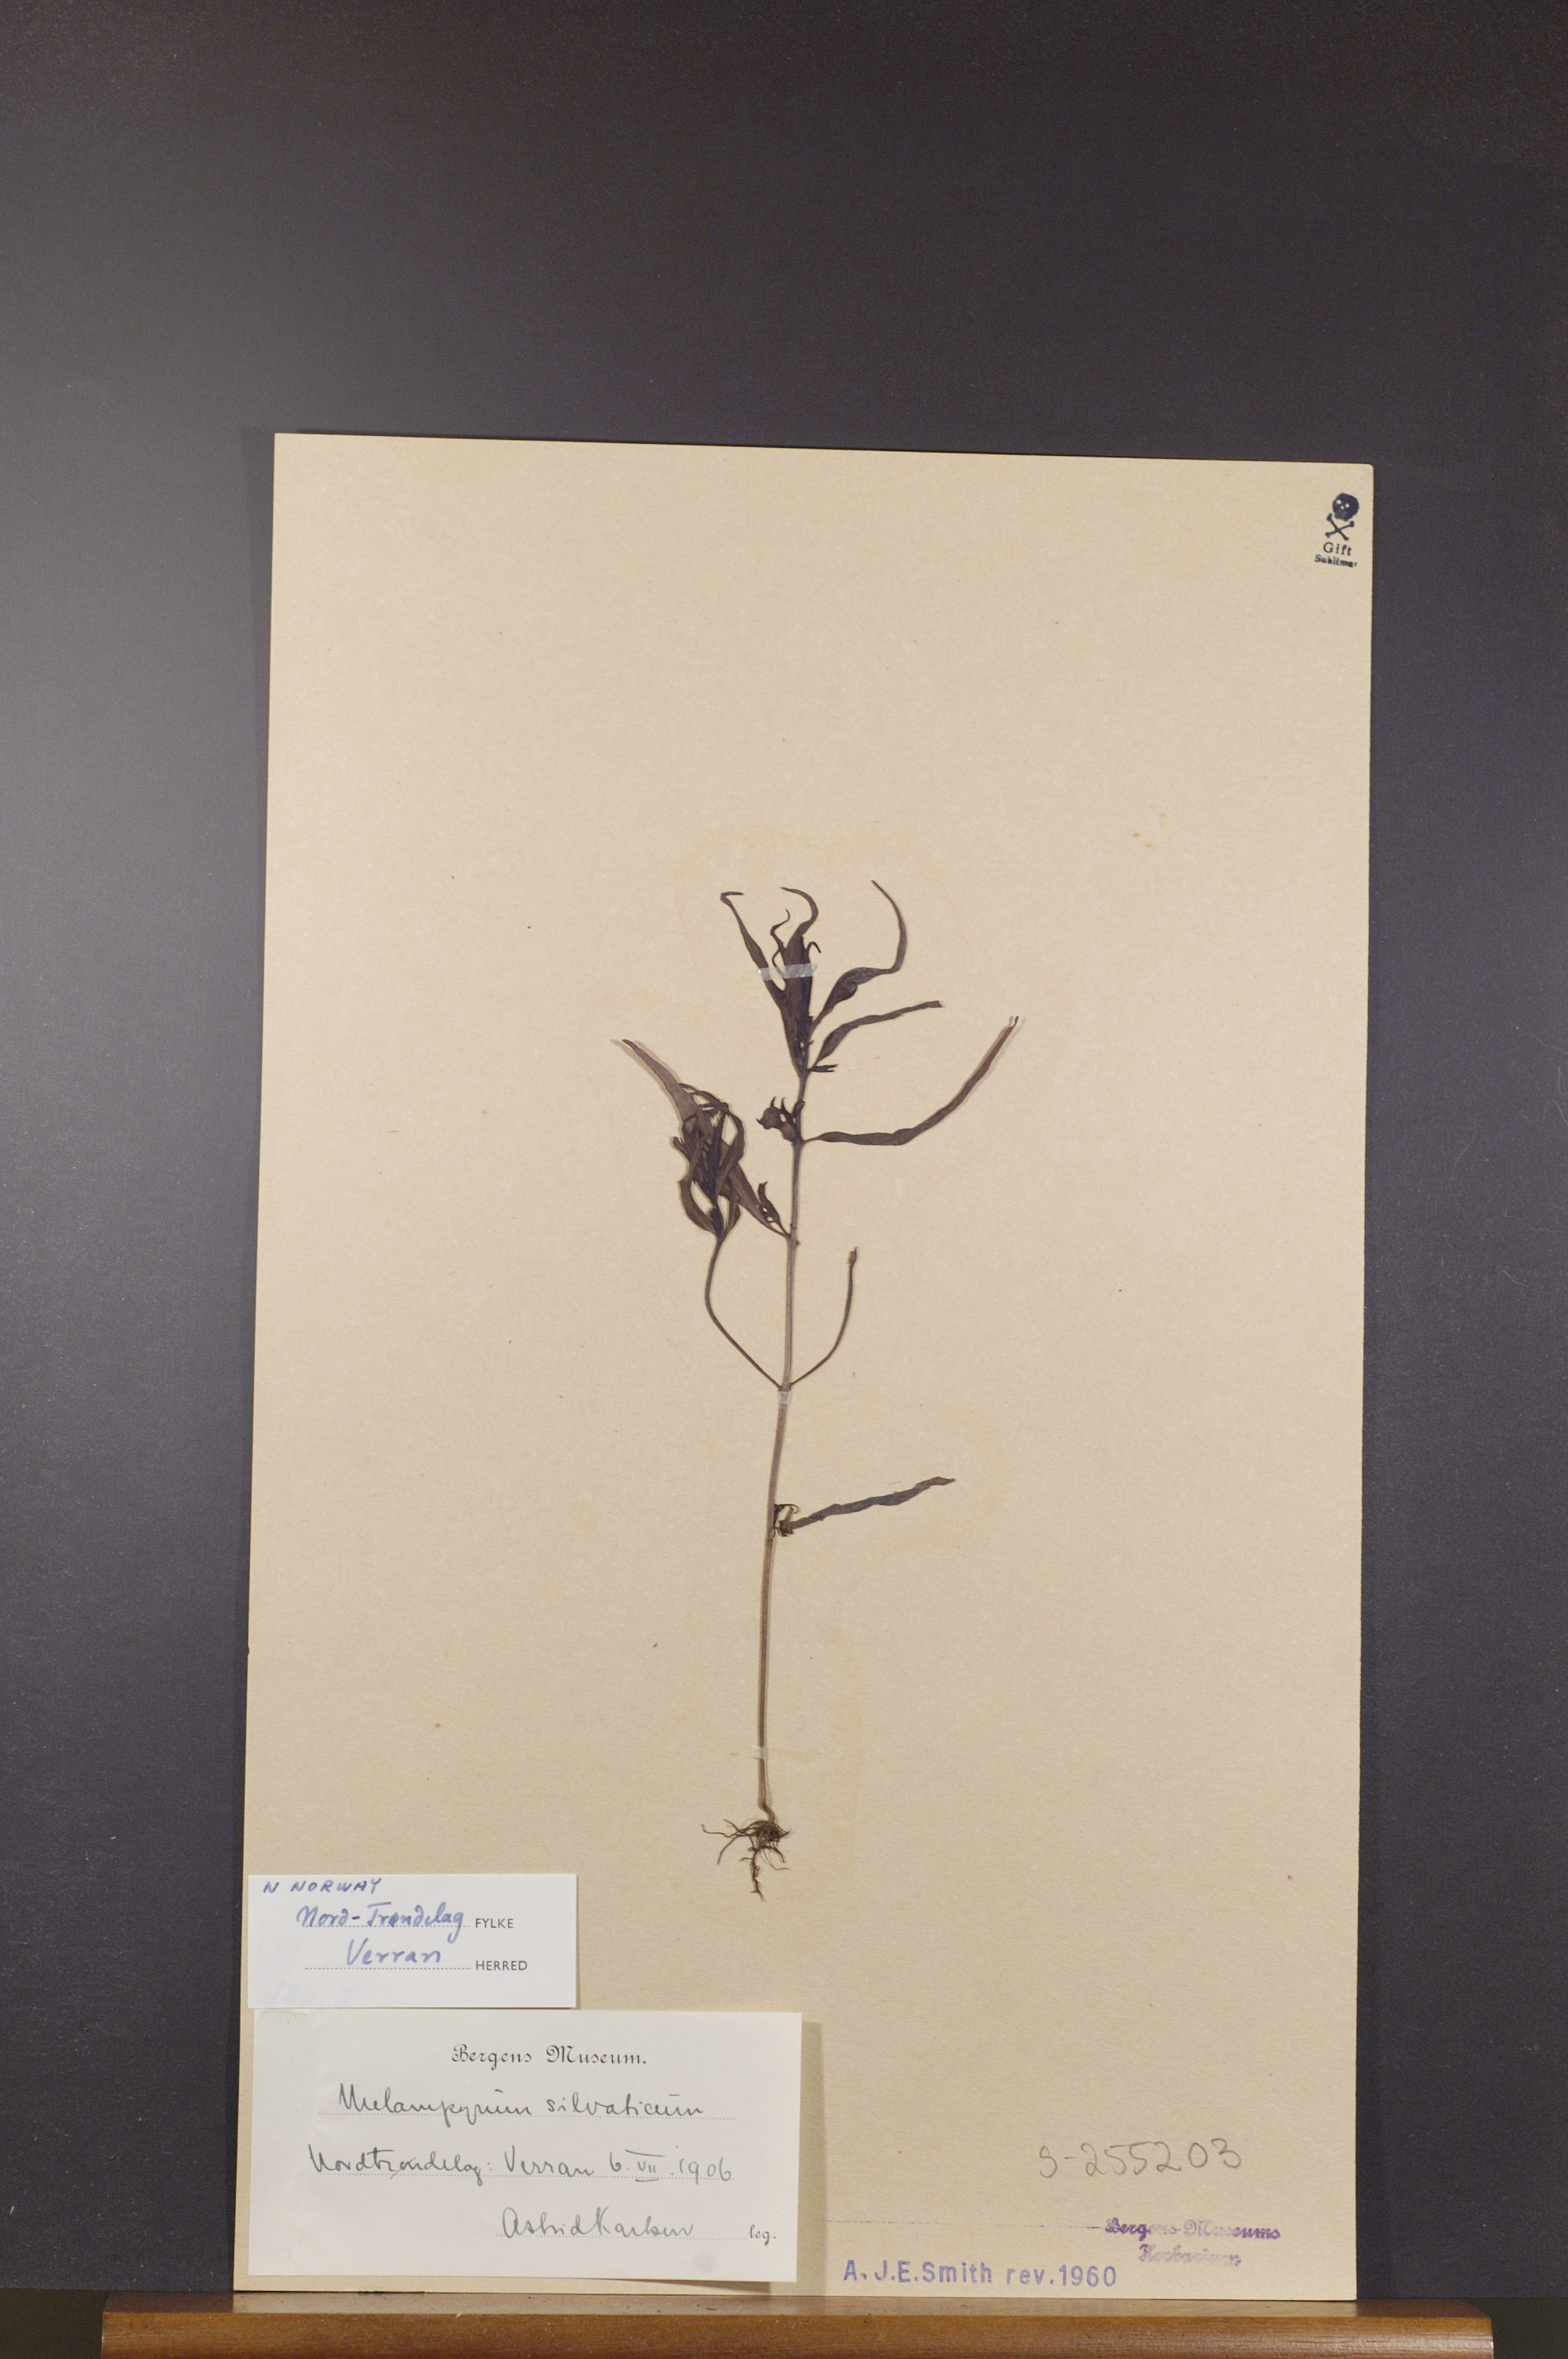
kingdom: Plantae
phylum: Tracheophyta
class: Magnoliopsida
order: Lamiales
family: Orobanchaceae
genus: Melampyrum
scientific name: Melampyrum sylvaticum
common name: Small cow-wheat
